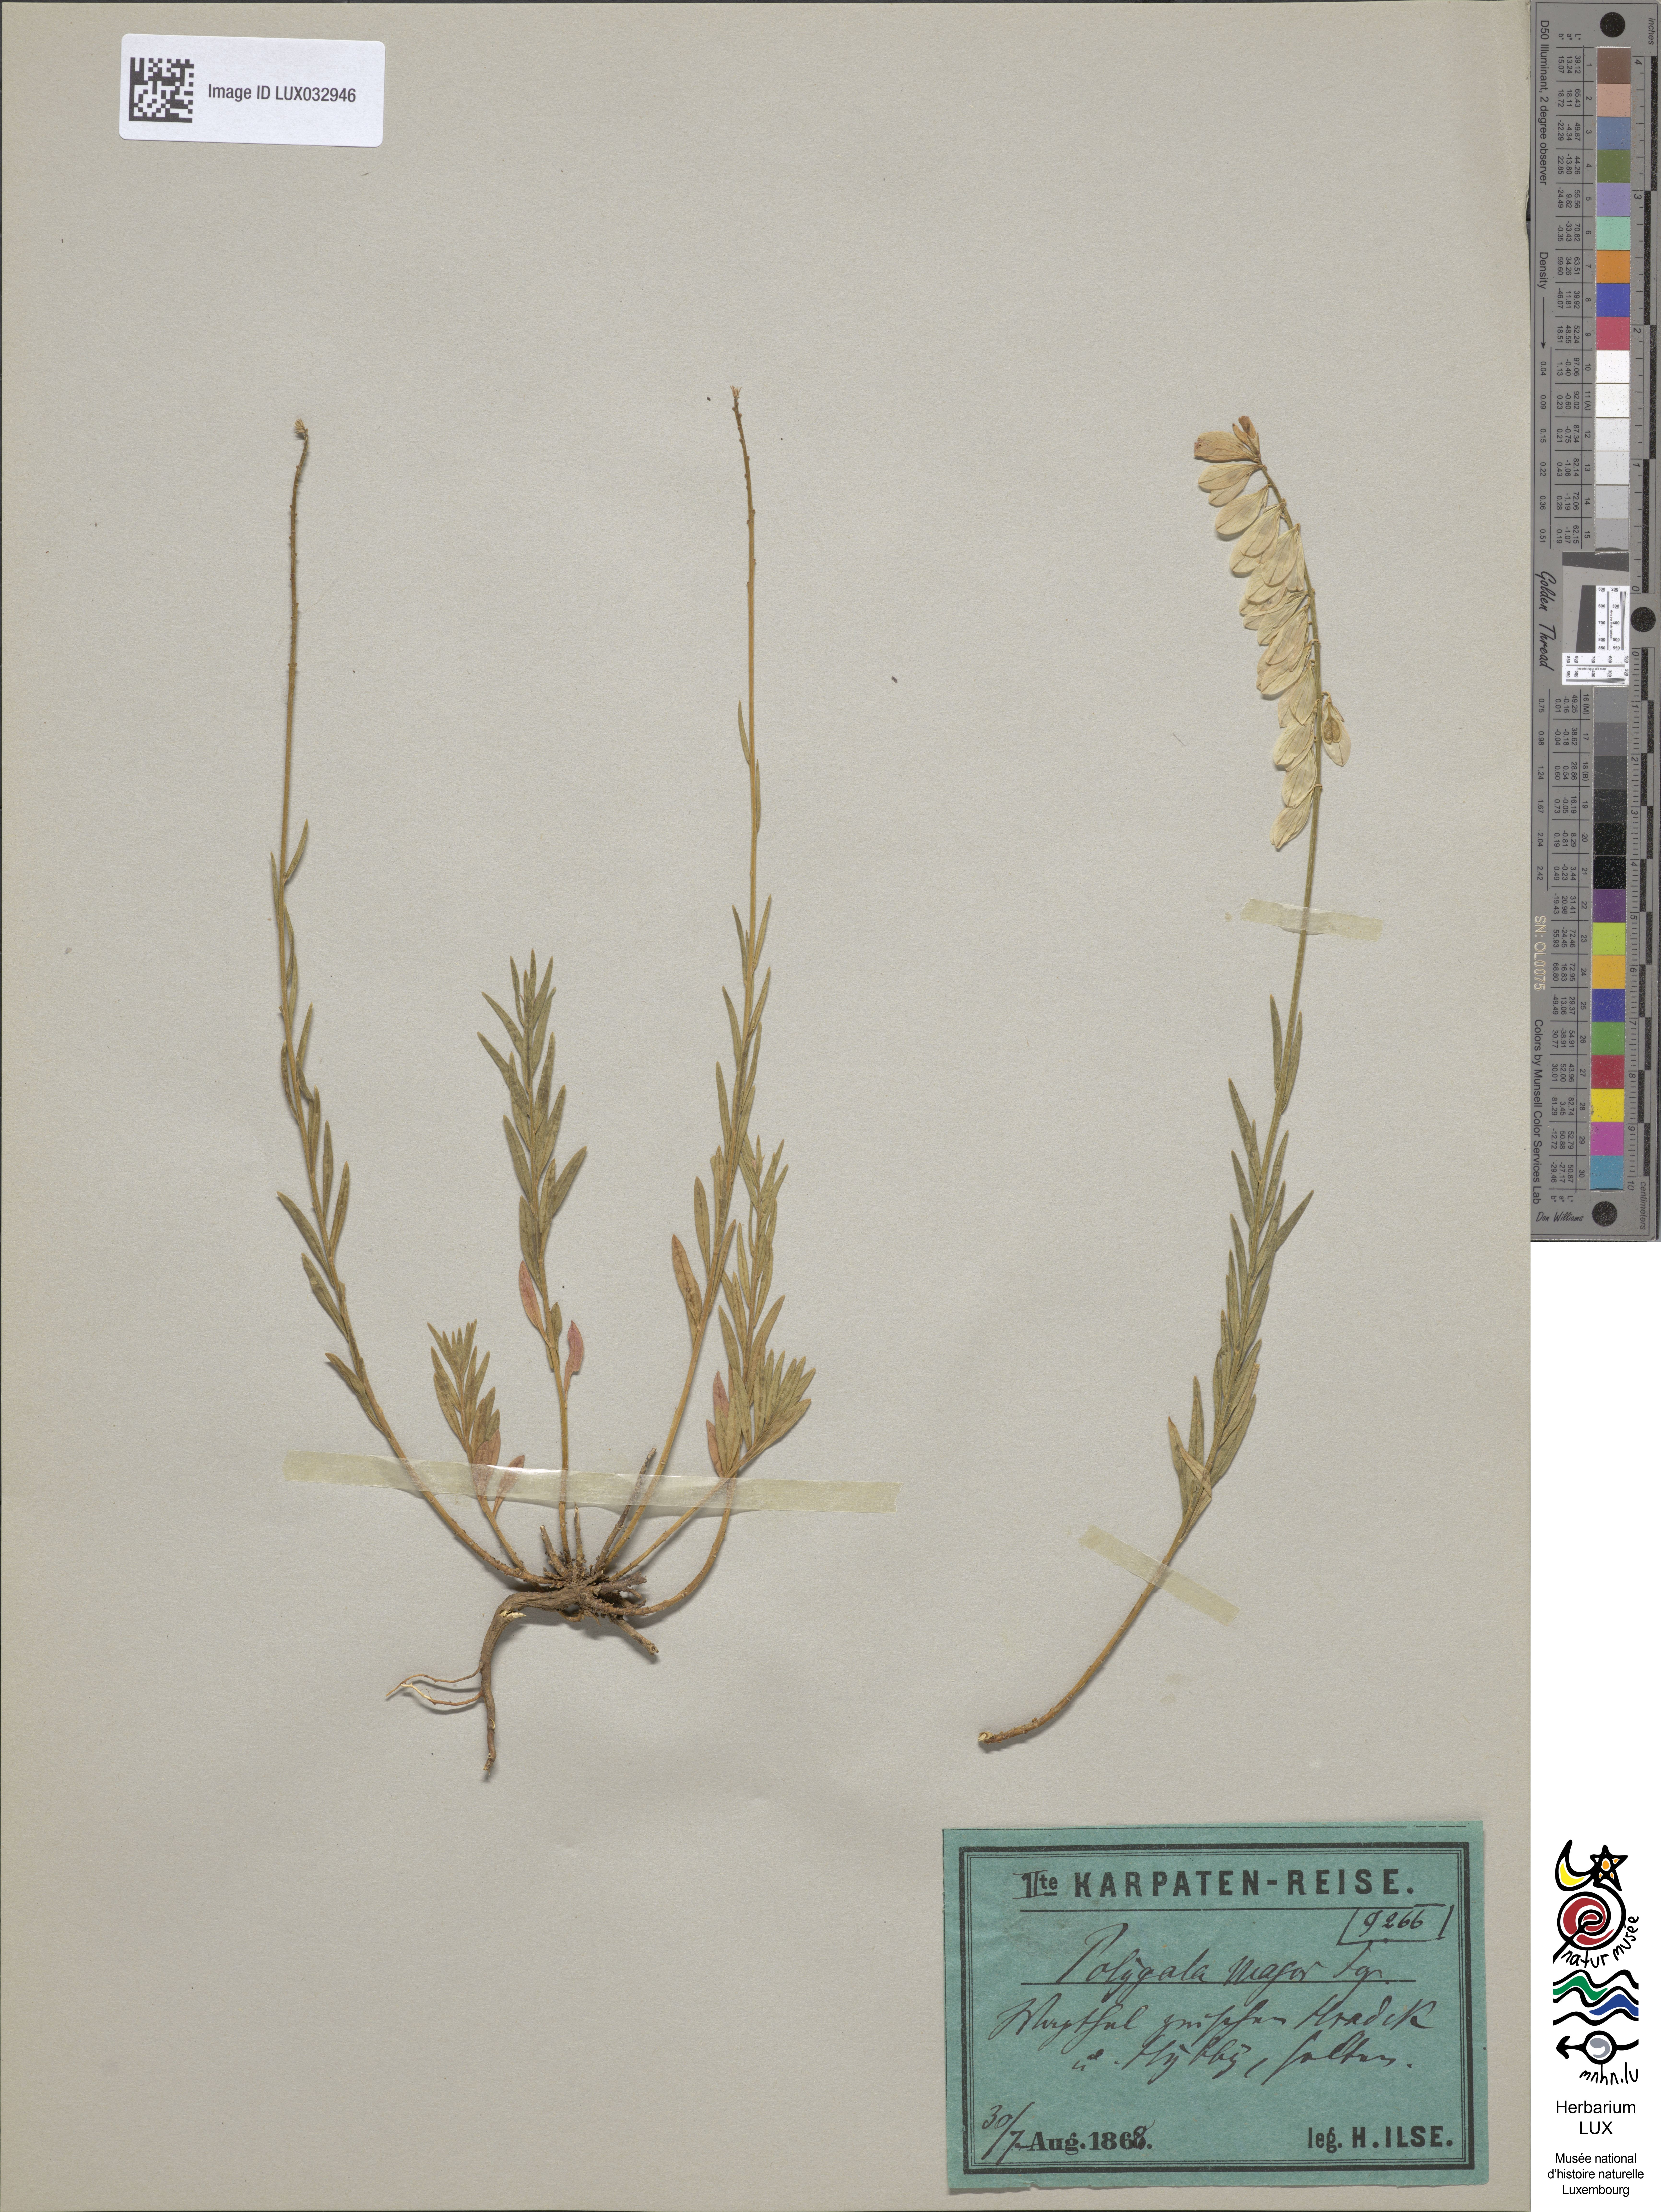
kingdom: Plantae
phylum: Tracheophyta
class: Magnoliopsida
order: Fabales
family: Polygalaceae
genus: Polygala
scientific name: Polygala major
